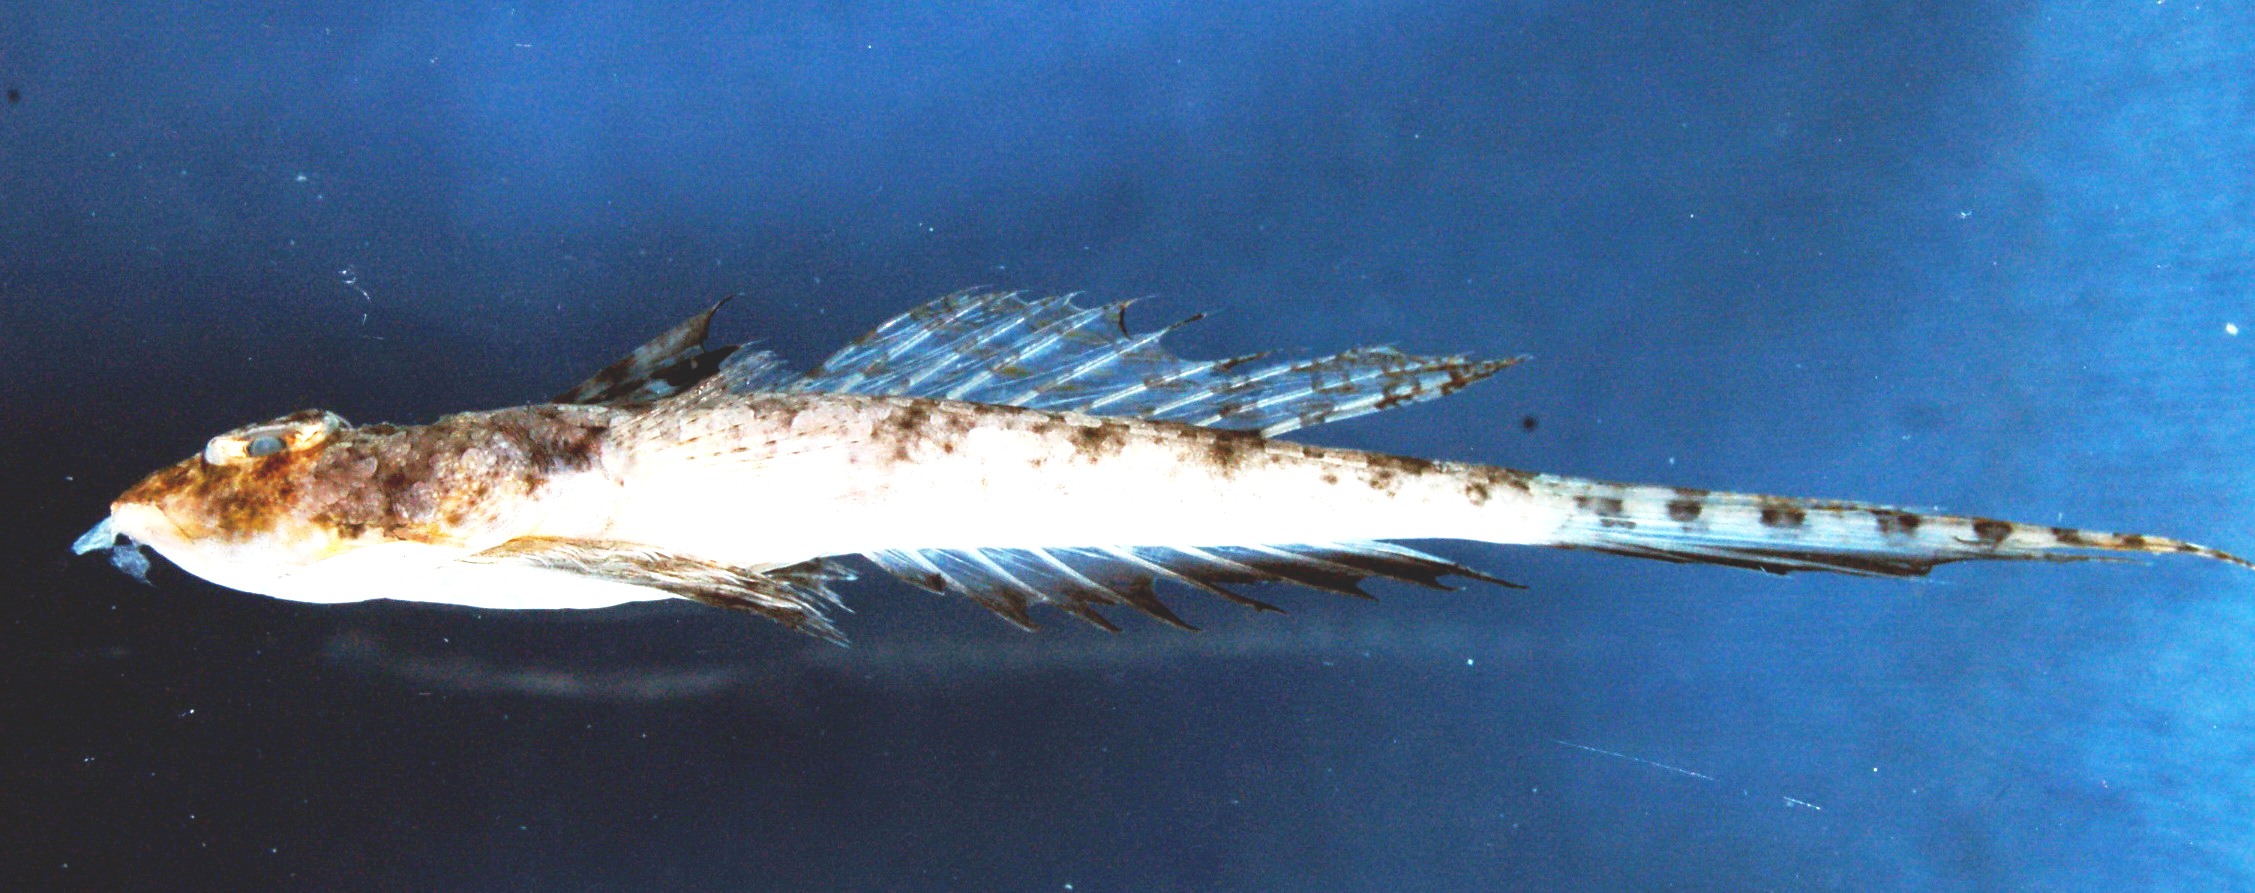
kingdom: Animalia
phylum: Chordata
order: Perciformes
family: Callionymidae
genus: Callionymus
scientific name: Callionymus persicus
